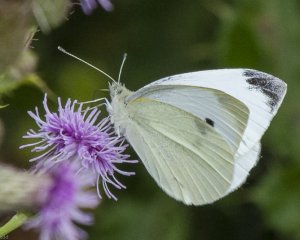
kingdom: Animalia
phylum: Arthropoda
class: Insecta
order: Lepidoptera
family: Pieridae
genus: Pieris
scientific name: Pieris rapae
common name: Cabbage White
